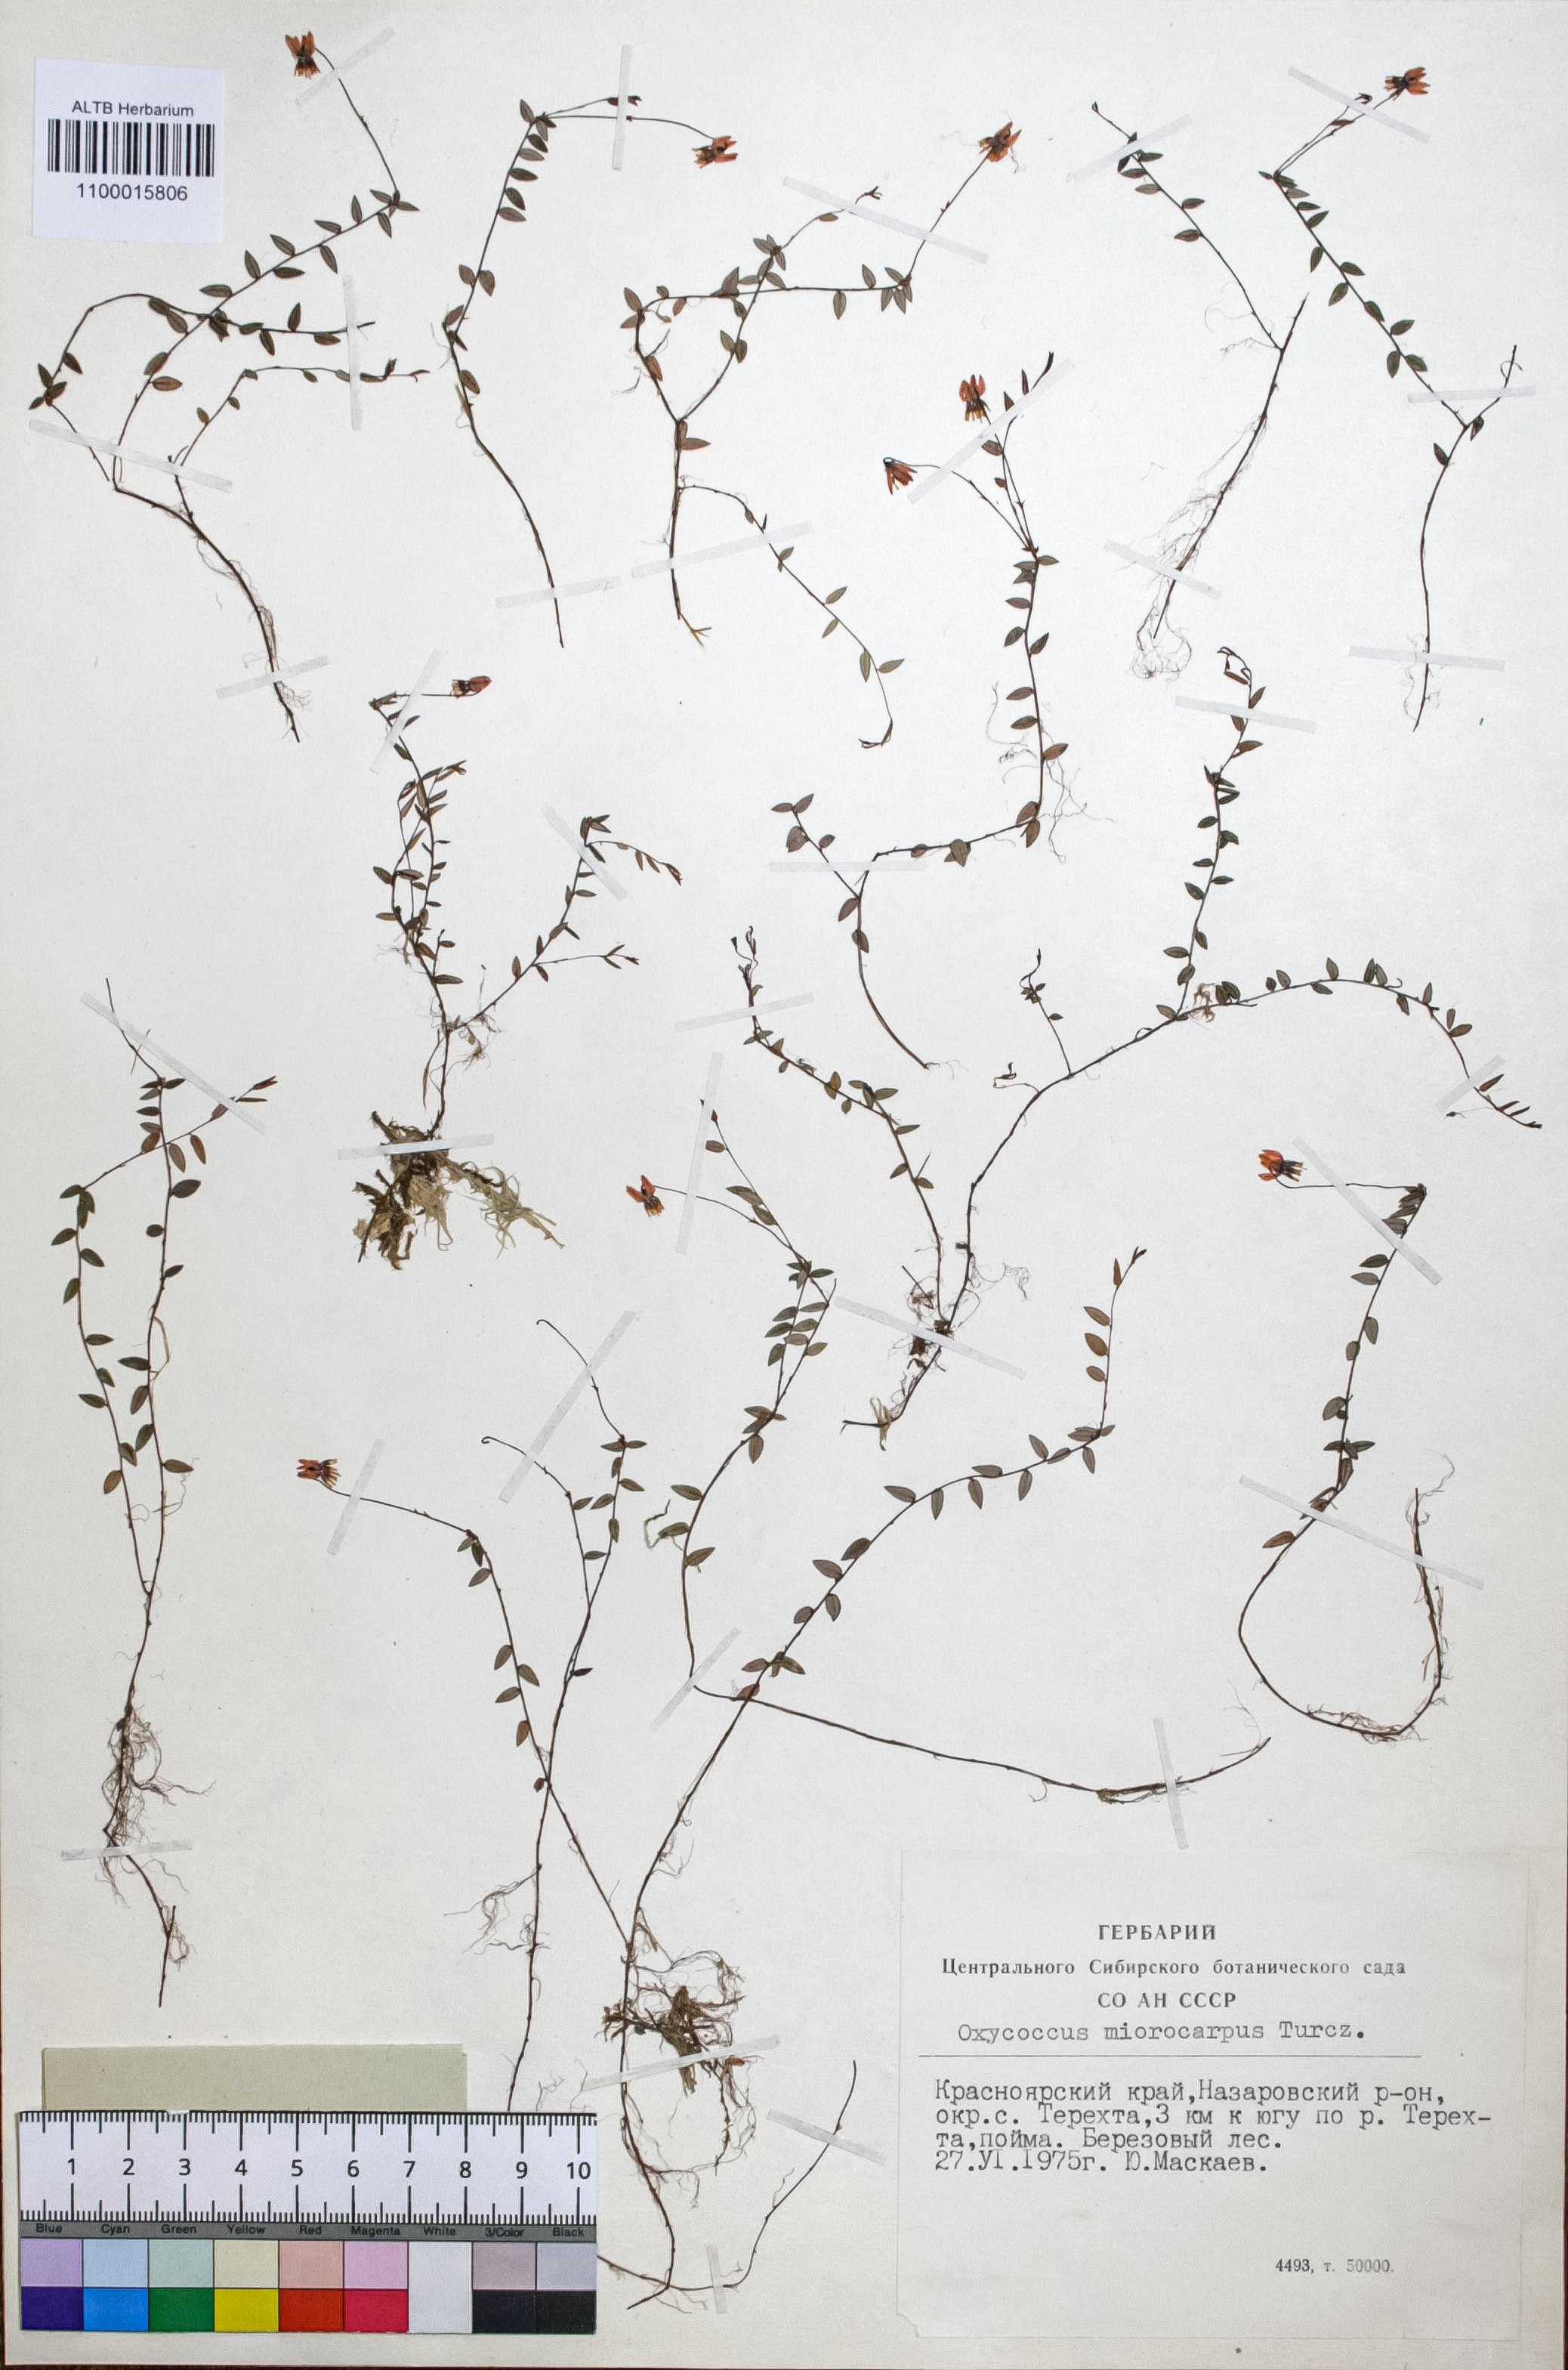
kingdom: Plantae
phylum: Tracheophyta
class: Magnoliopsida
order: Ericales
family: Ericaceae
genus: Vaccinium
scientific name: Vaccinium microcarpum
